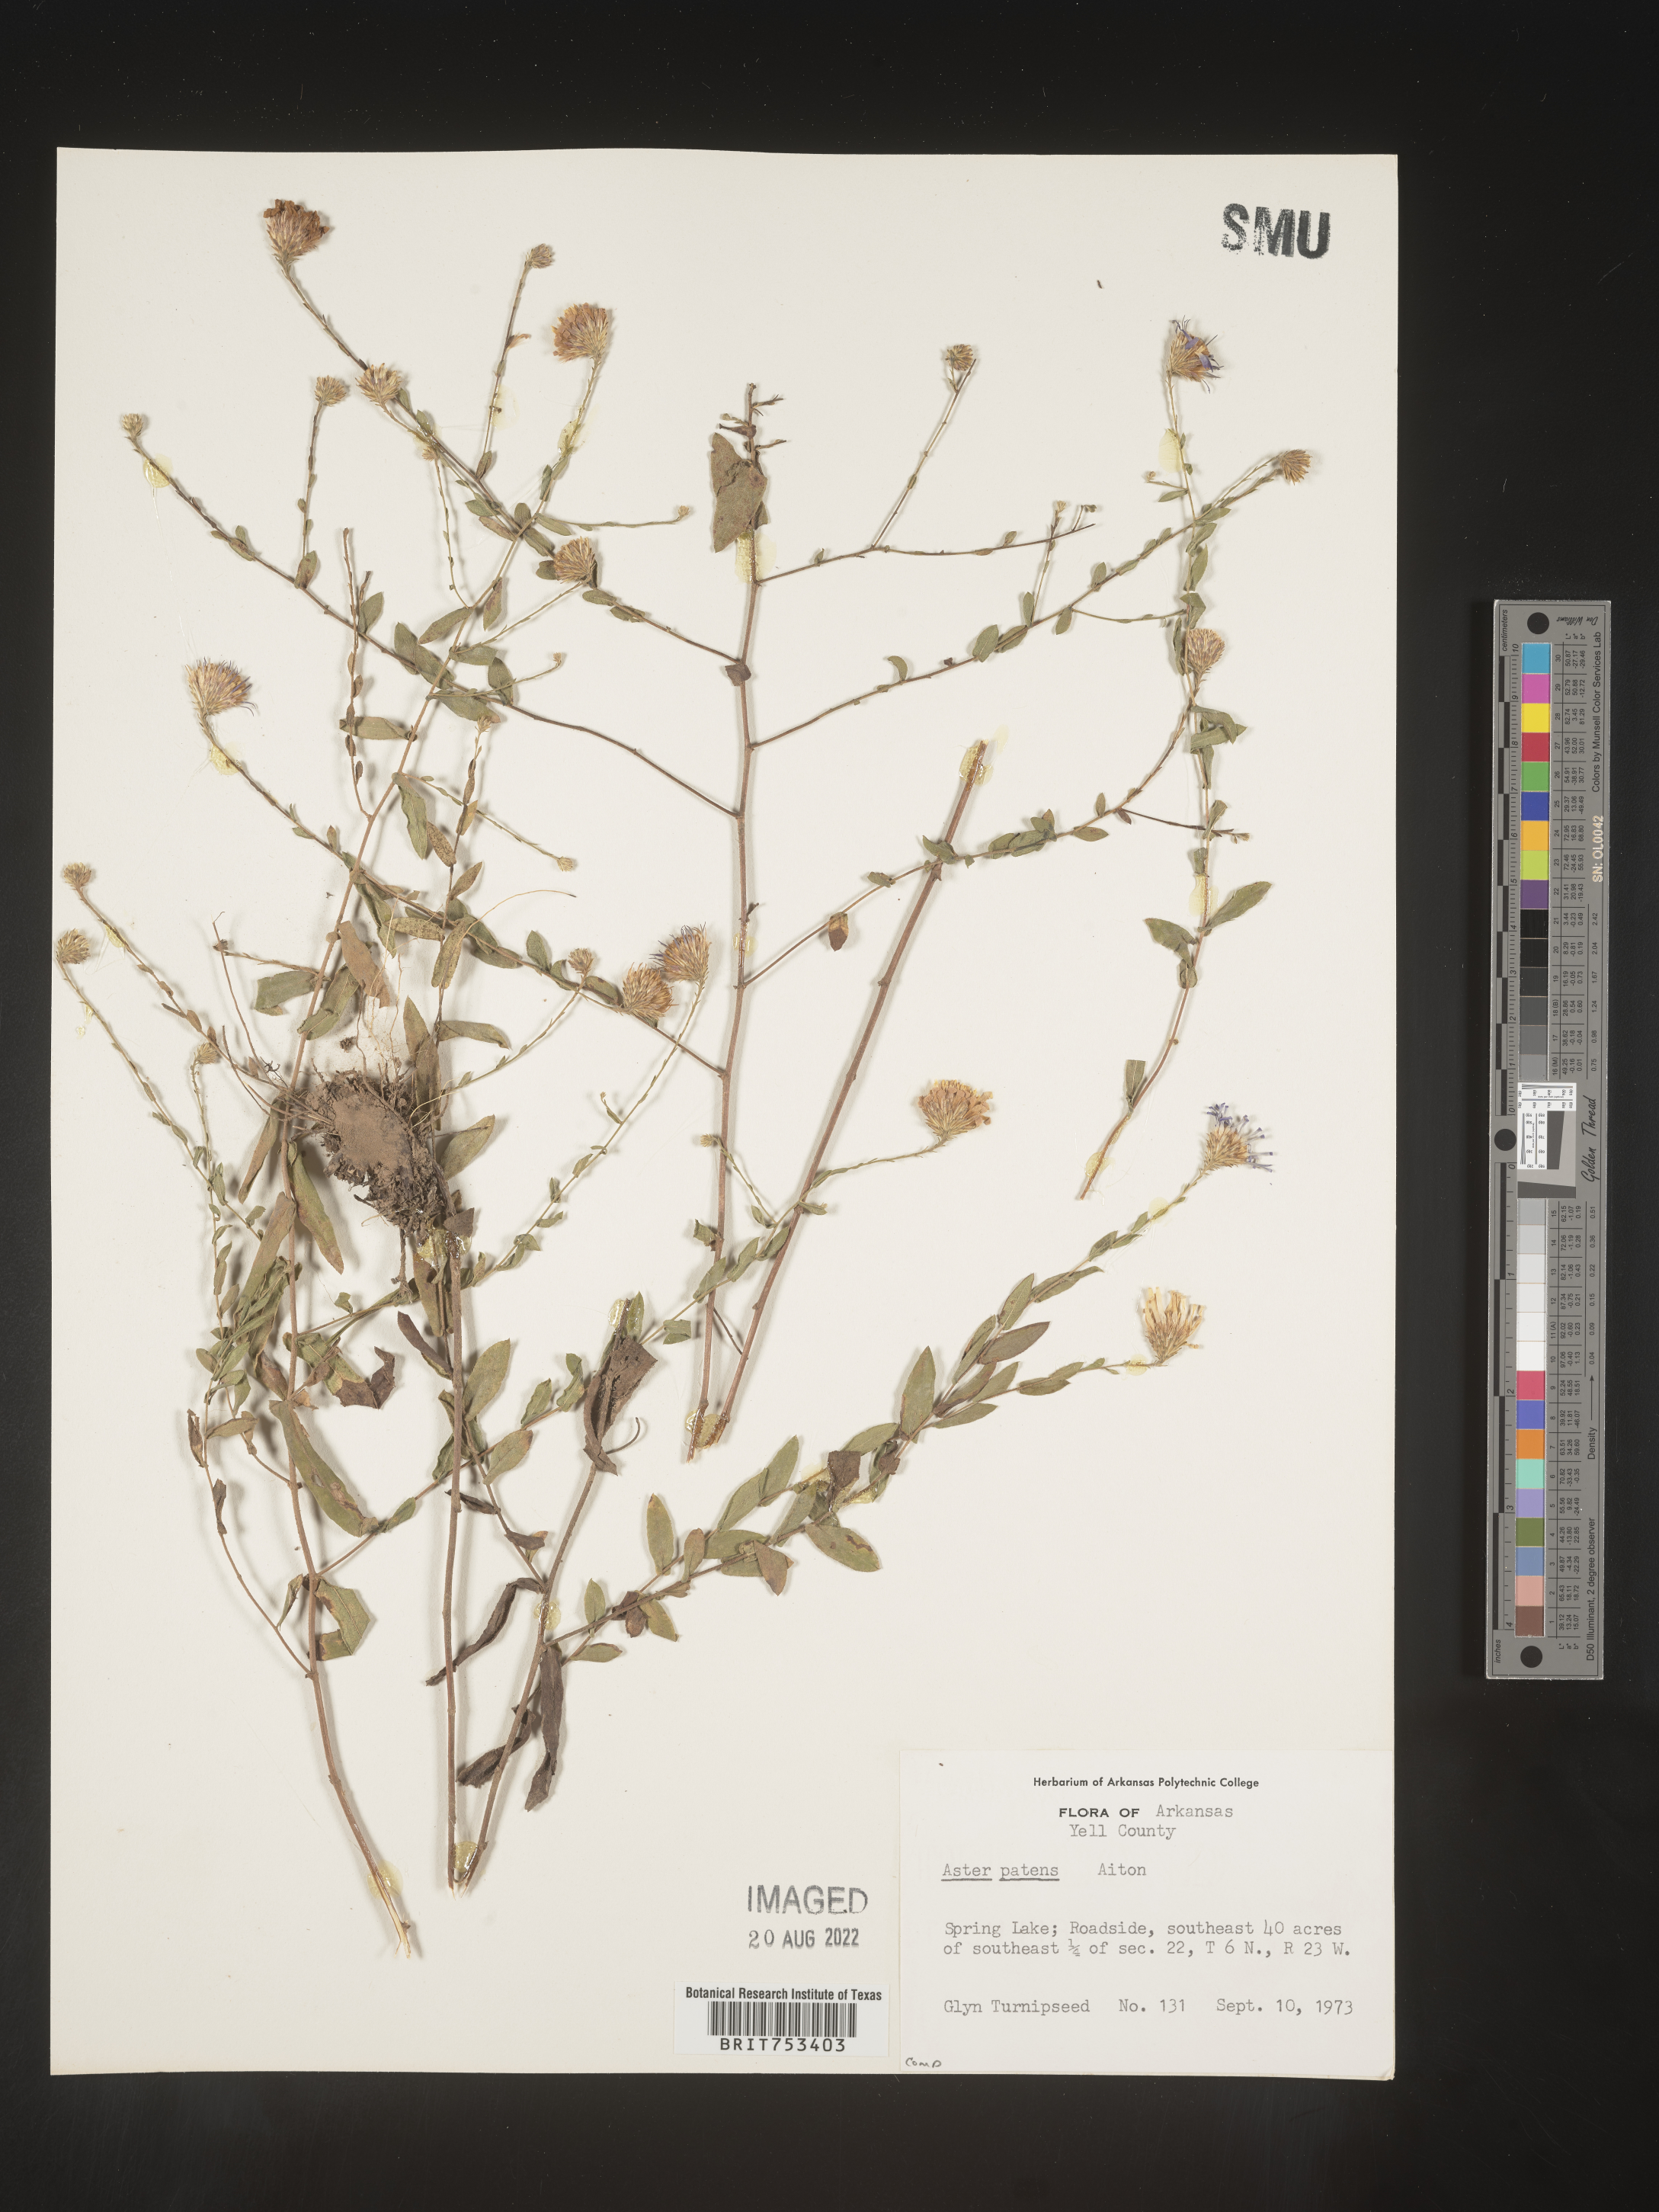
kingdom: Plantae
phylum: Tracheophyta
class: Magnoliopsida
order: Asterales
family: Asteraceae
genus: Symphyotrichum
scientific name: Symphyotrichum patens
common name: Late purple aster
